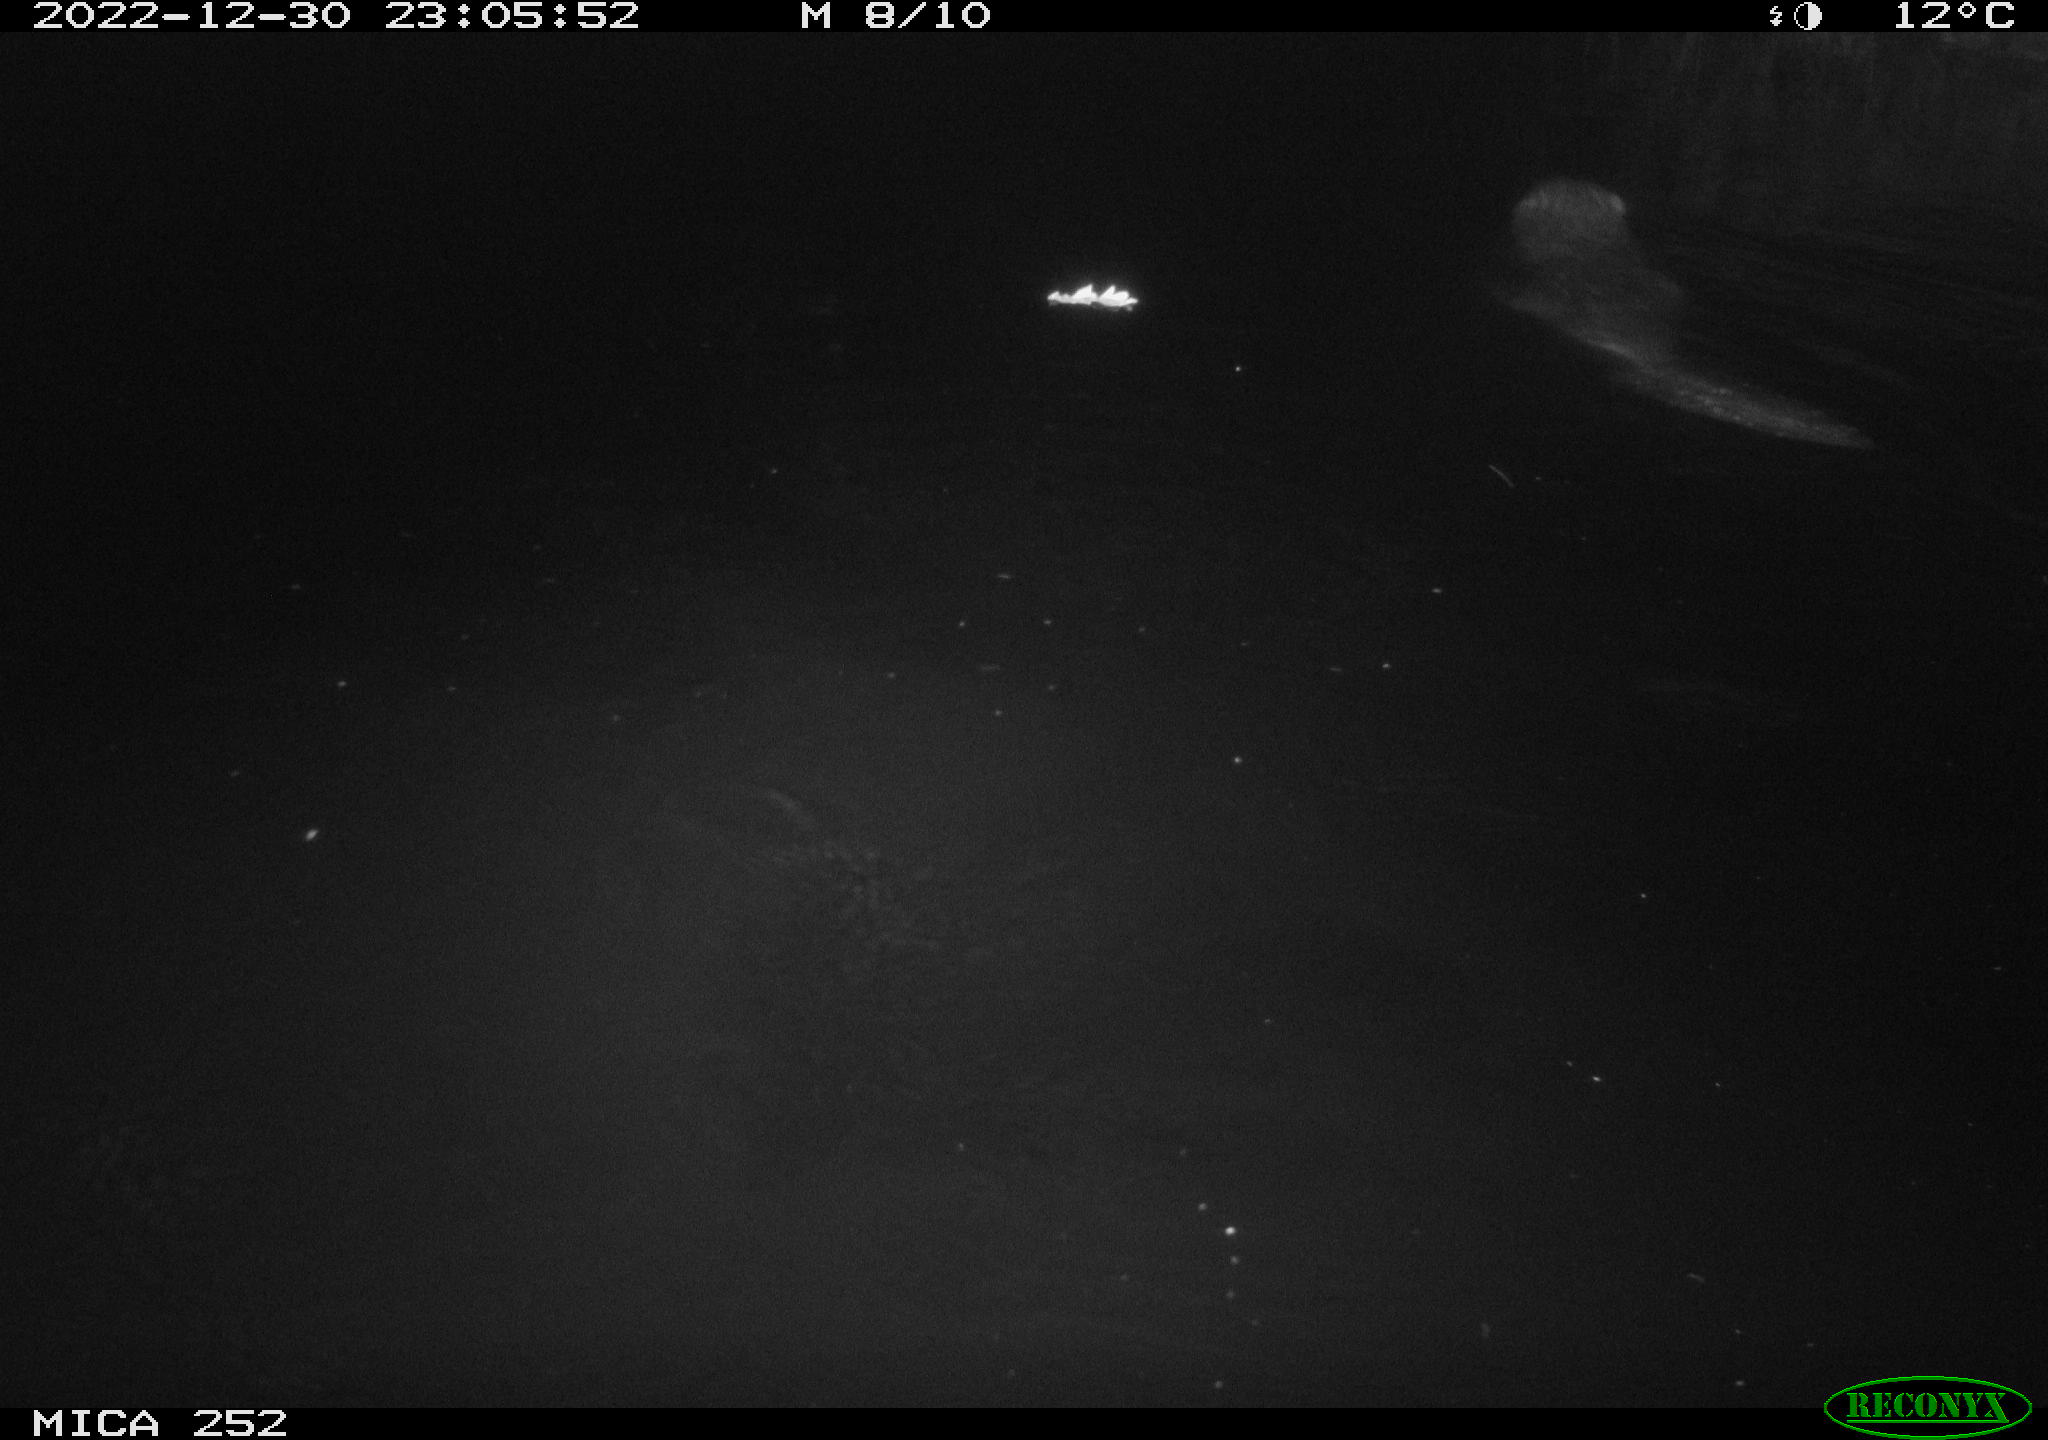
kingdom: Animalia
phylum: Chordata
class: Mammalia
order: Rodentia
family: Castoridae
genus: Castor
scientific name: Castor fiber
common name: Eurasian beaver
